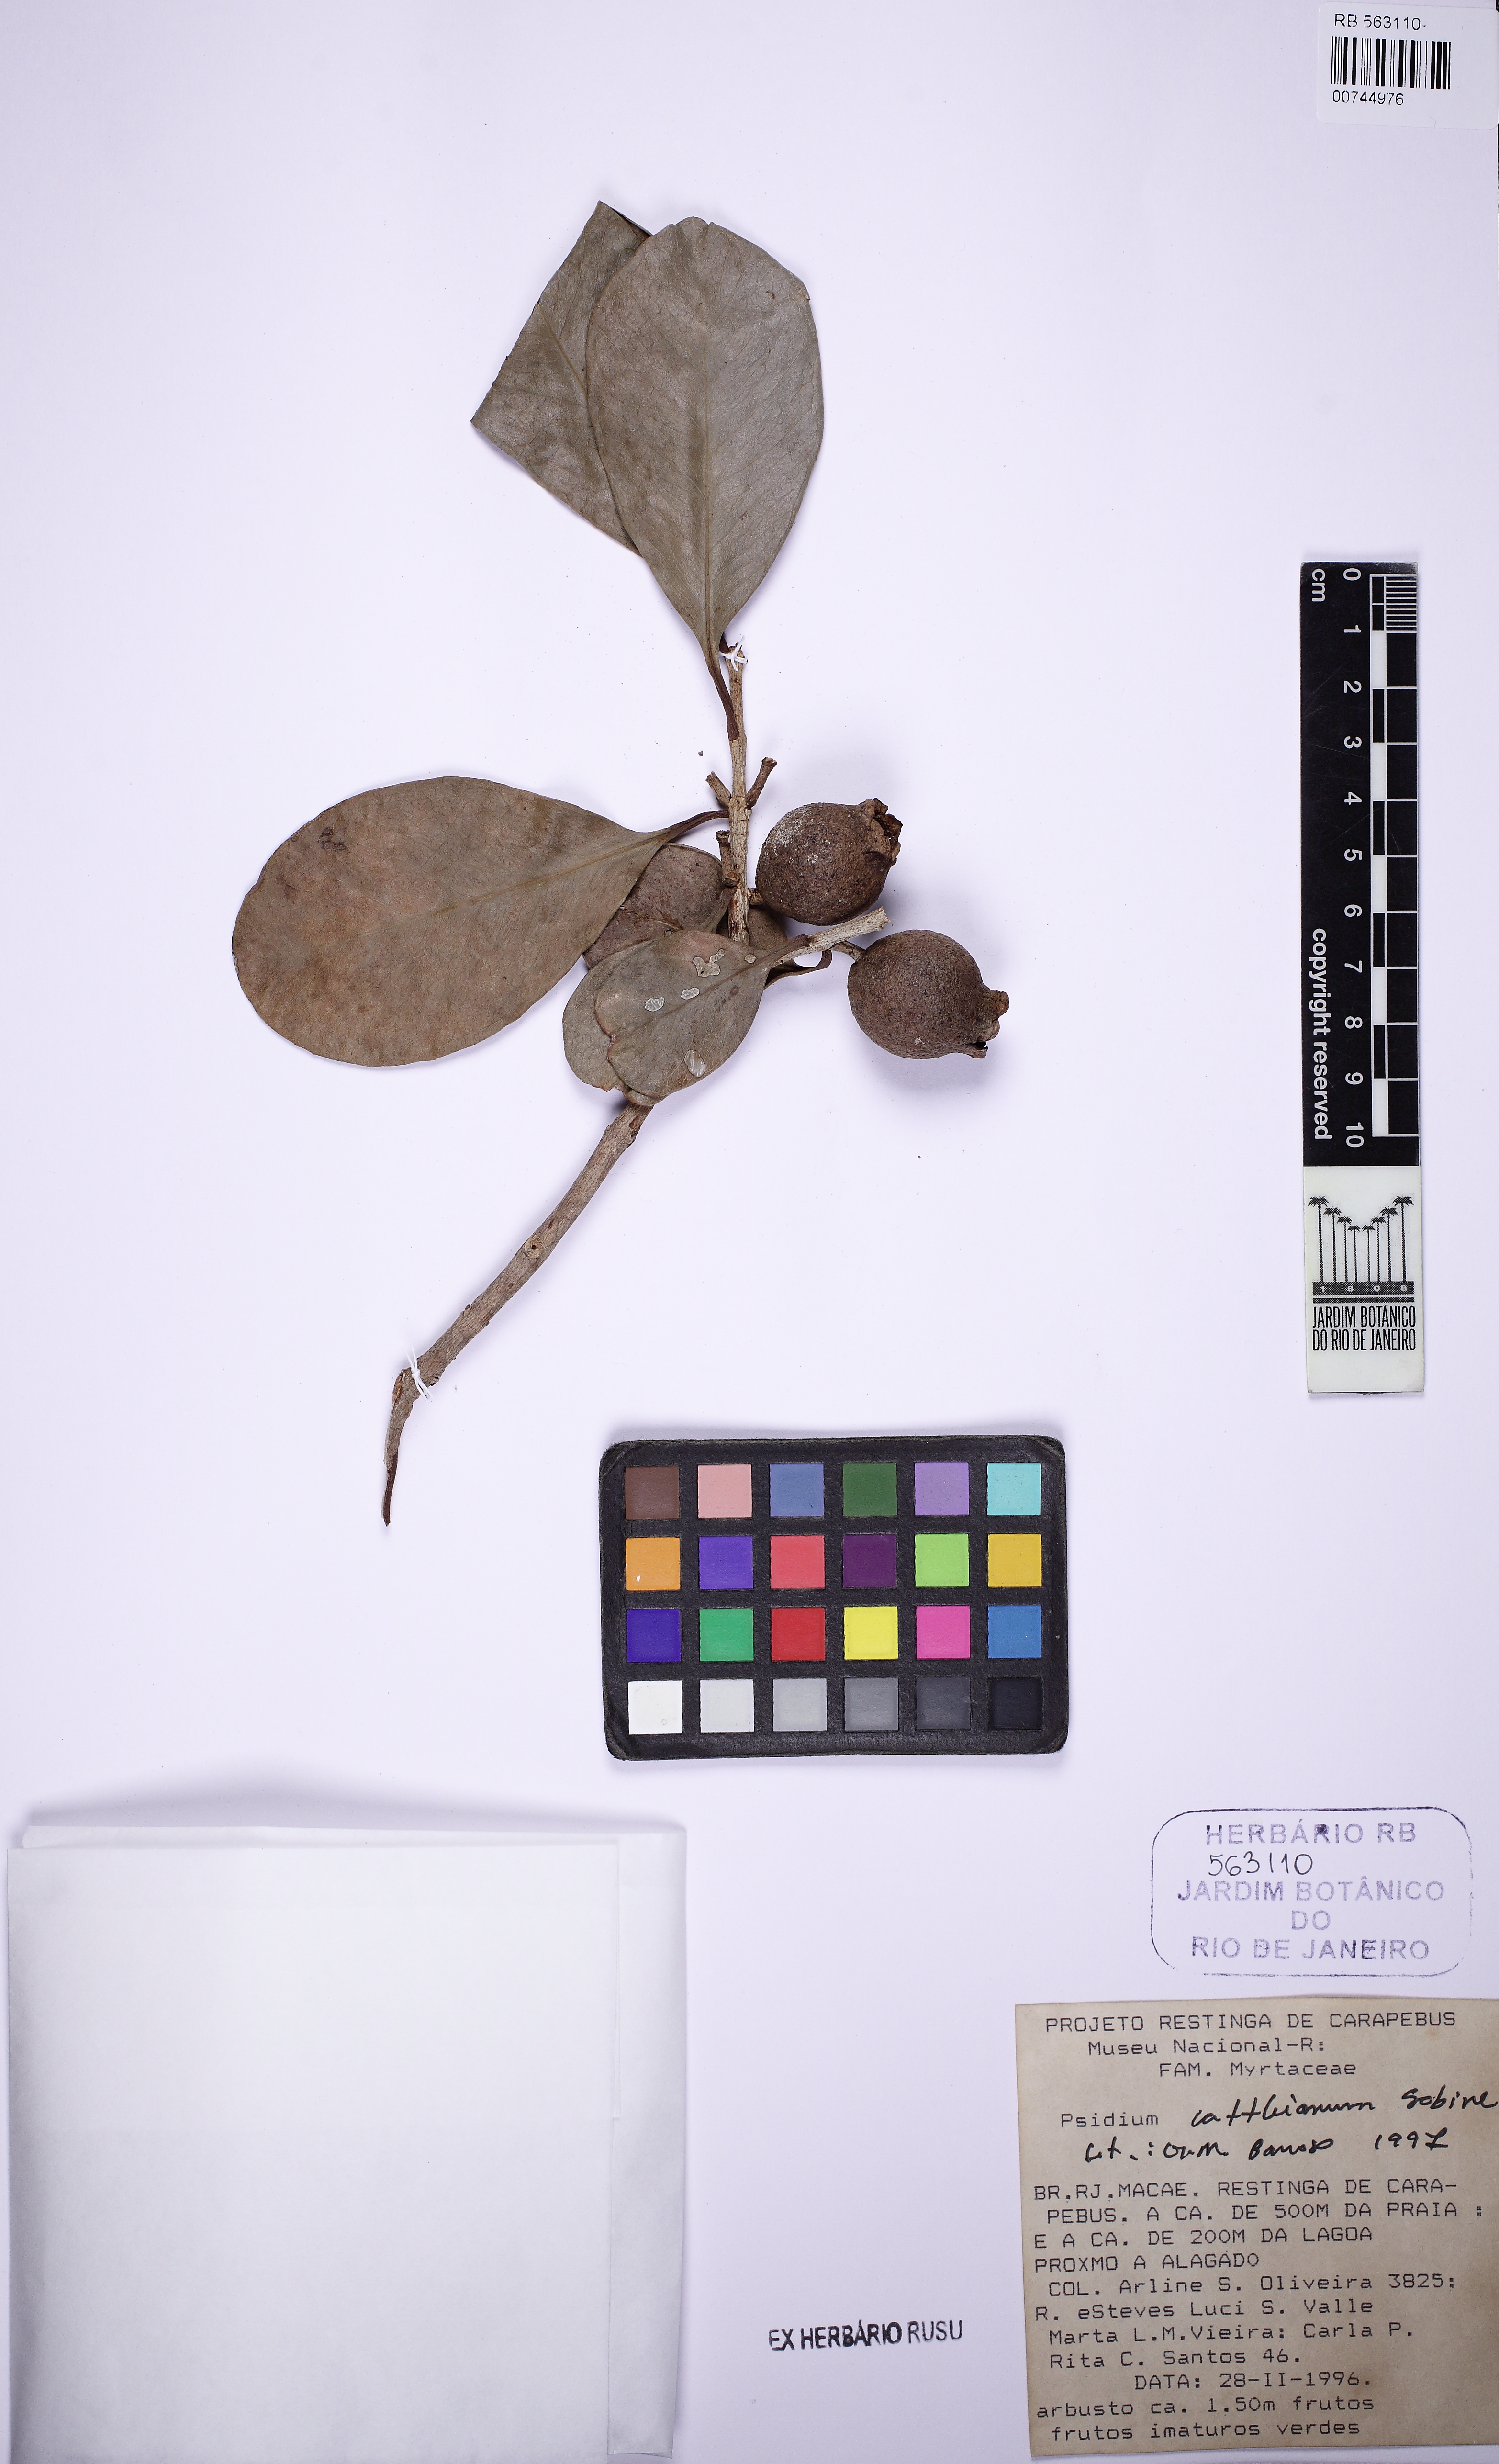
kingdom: Plantae
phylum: Tracheophyta
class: Magnoliopsida
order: Myrtales
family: Myrtaceae
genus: Psidium
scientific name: Psidium cattleianum
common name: Strawberry guava
